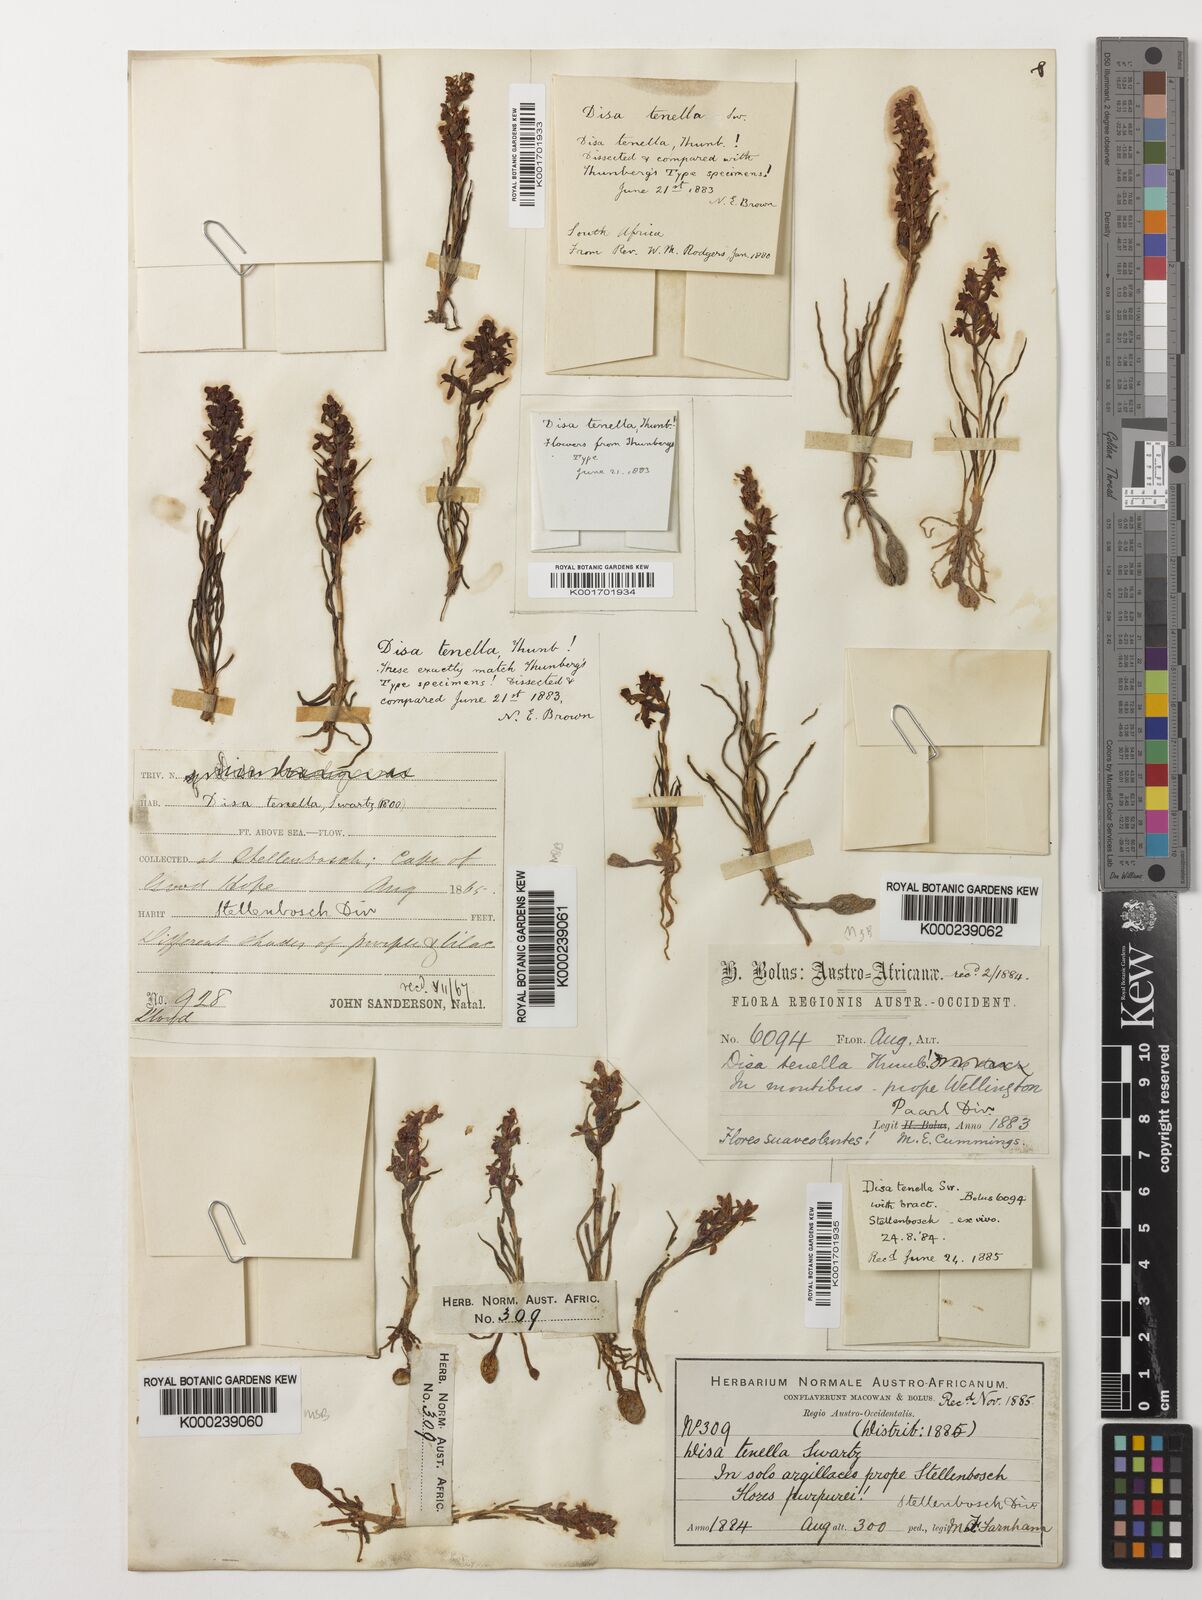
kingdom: Plantae
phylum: Tracheophyta
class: Liliopsida
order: Asparagales
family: Orchidaceae
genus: Disa
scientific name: Disa tenella
